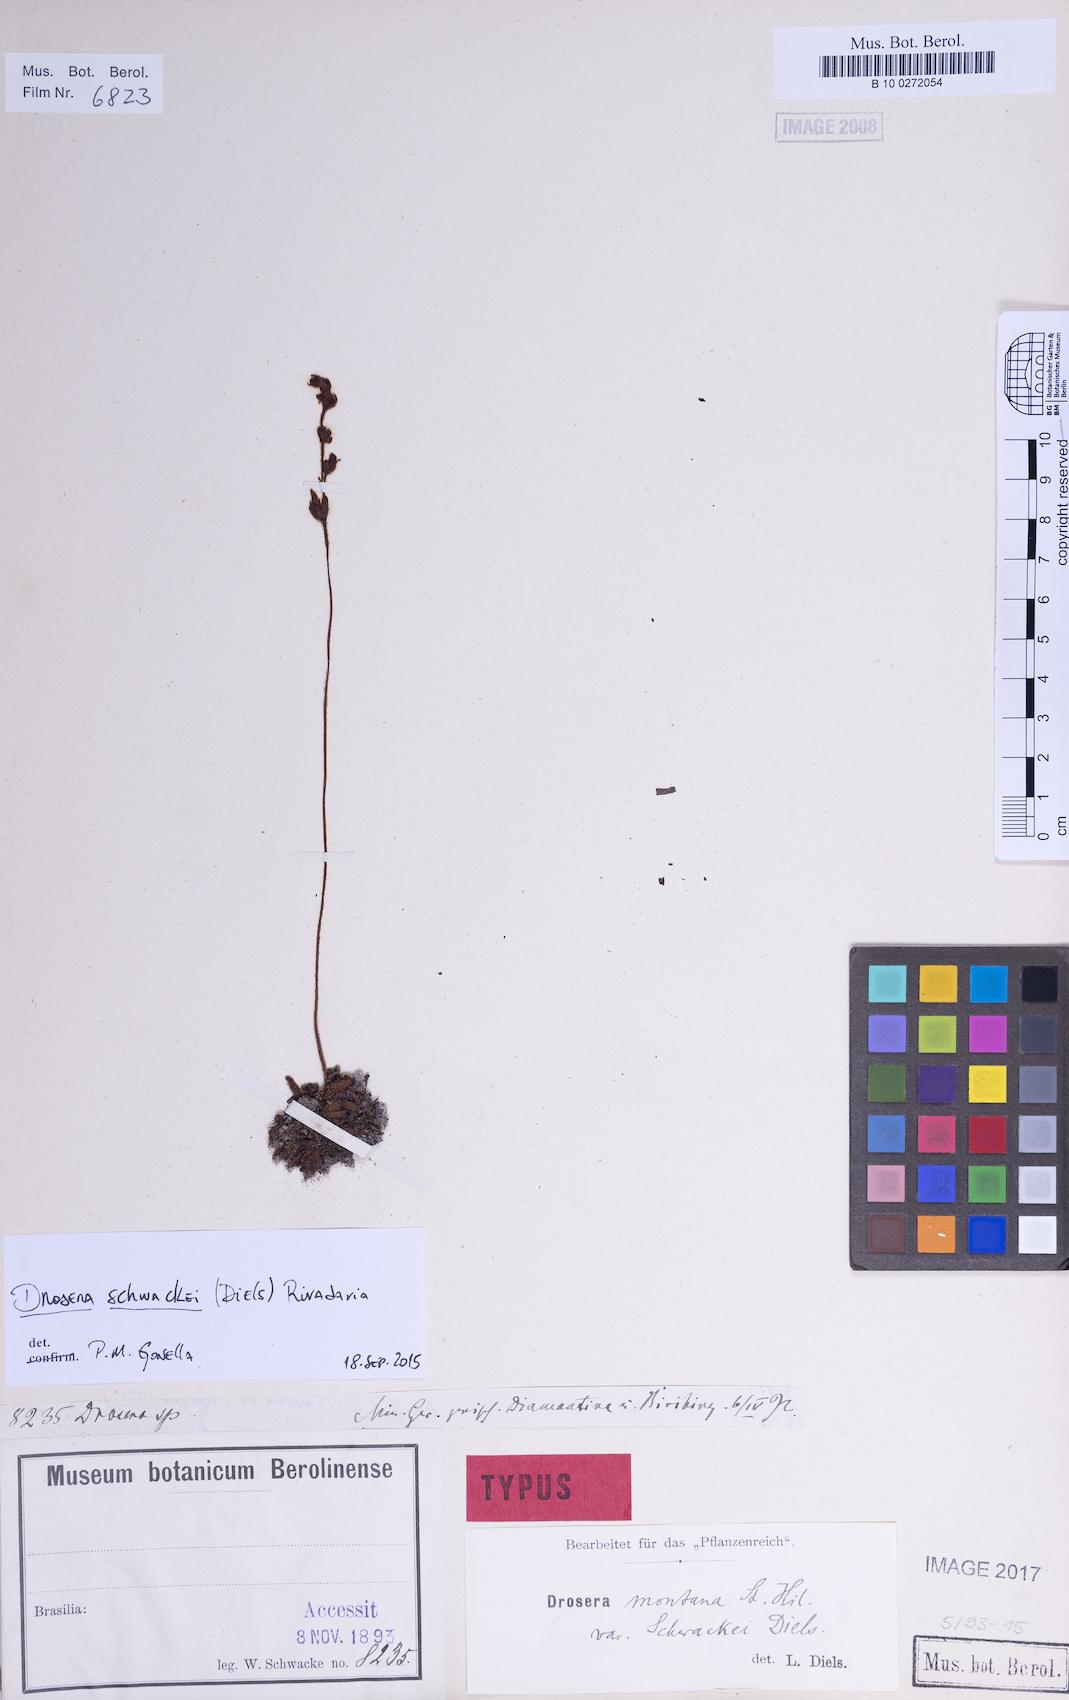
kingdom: Plantae
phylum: Tracheophyta
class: Magnoliopsida
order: Caryophyllales
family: Droseraceae
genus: Drosera
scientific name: Drosera montana
